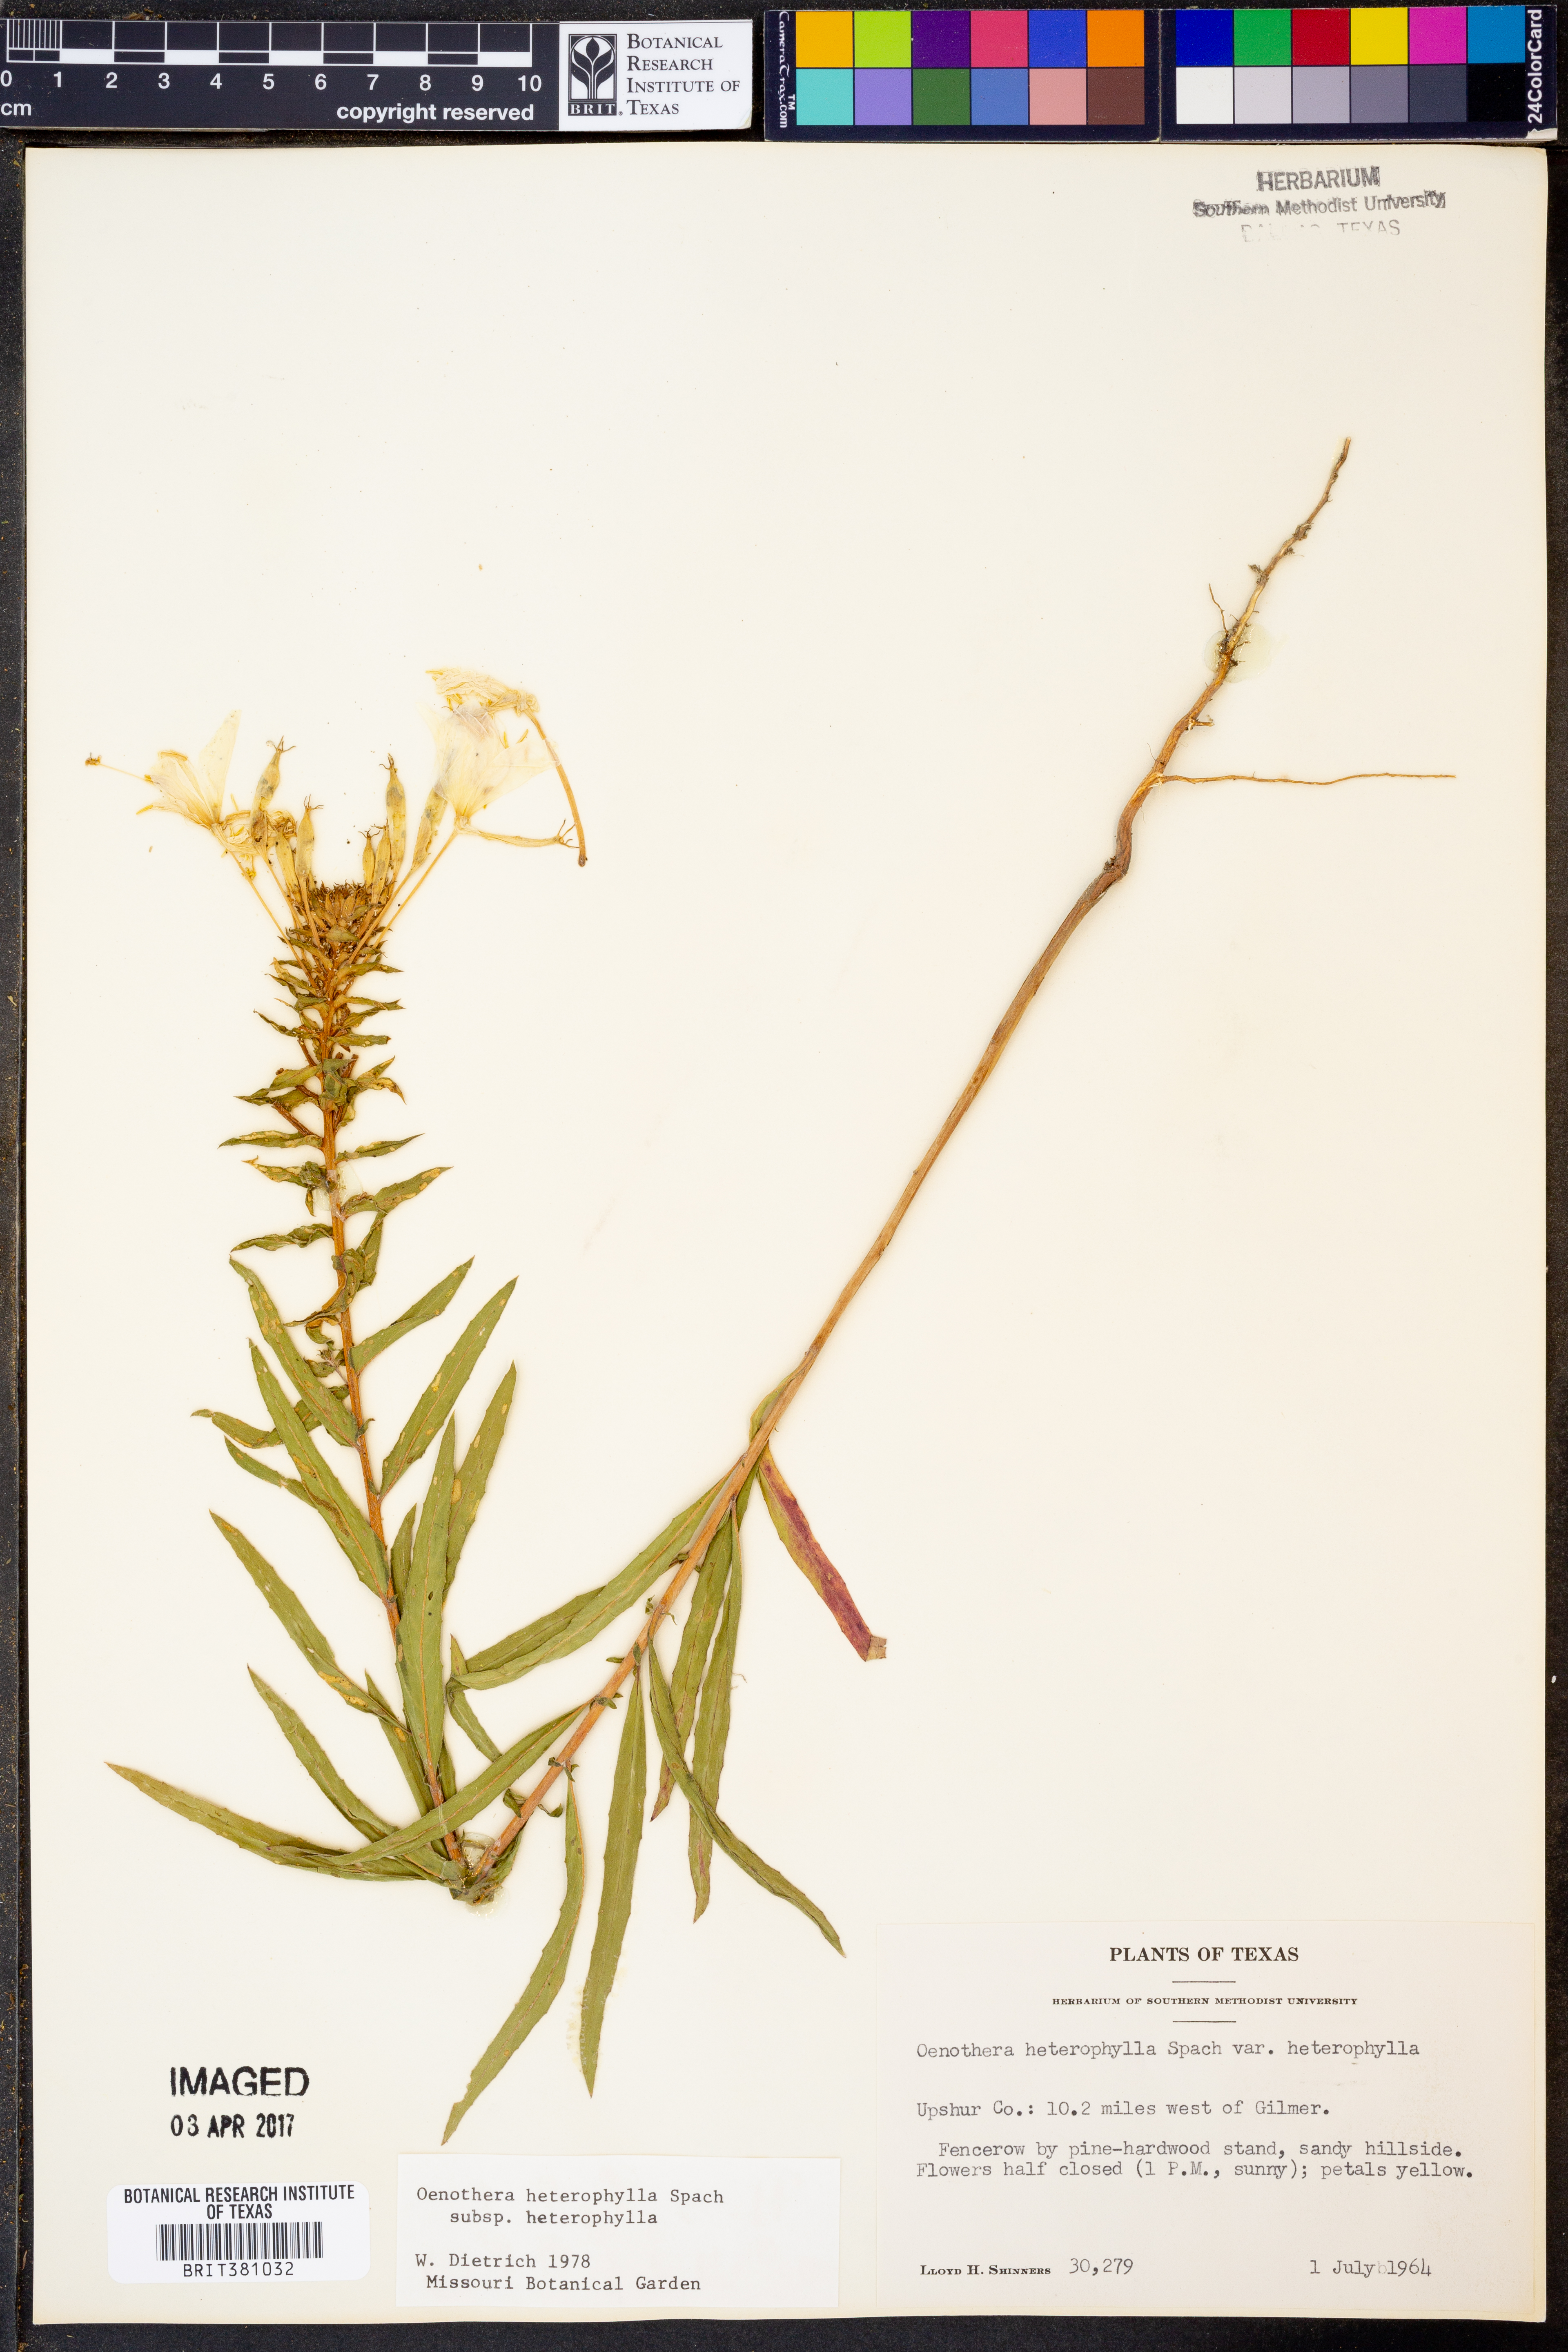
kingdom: Plantae
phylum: Tracheophyta
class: Magnoliopsida
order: Myrtales
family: Onagraceae
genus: Oenothera
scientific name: Oenothera heterophylla
